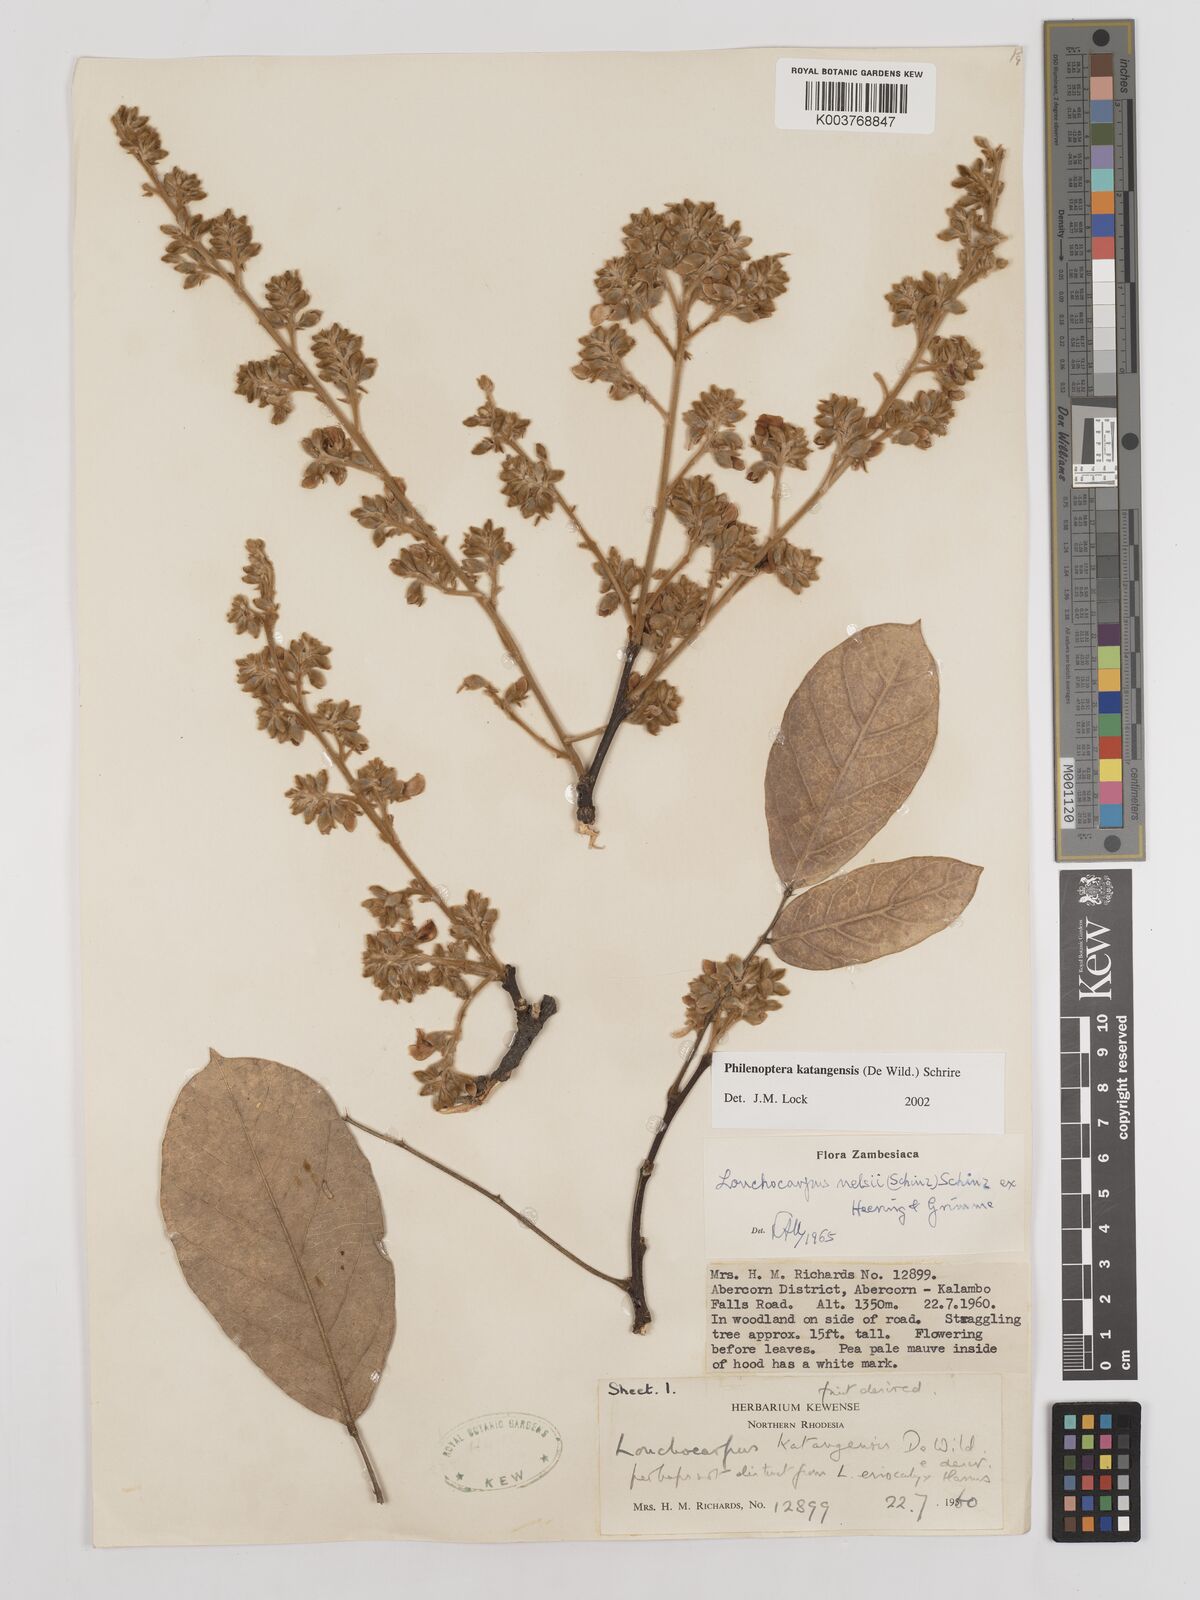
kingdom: Plantae
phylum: Tracheophyta
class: Magnoliopsida
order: Fabales
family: Fabaceae
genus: Philenoptera
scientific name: Philenoptera katangensis
